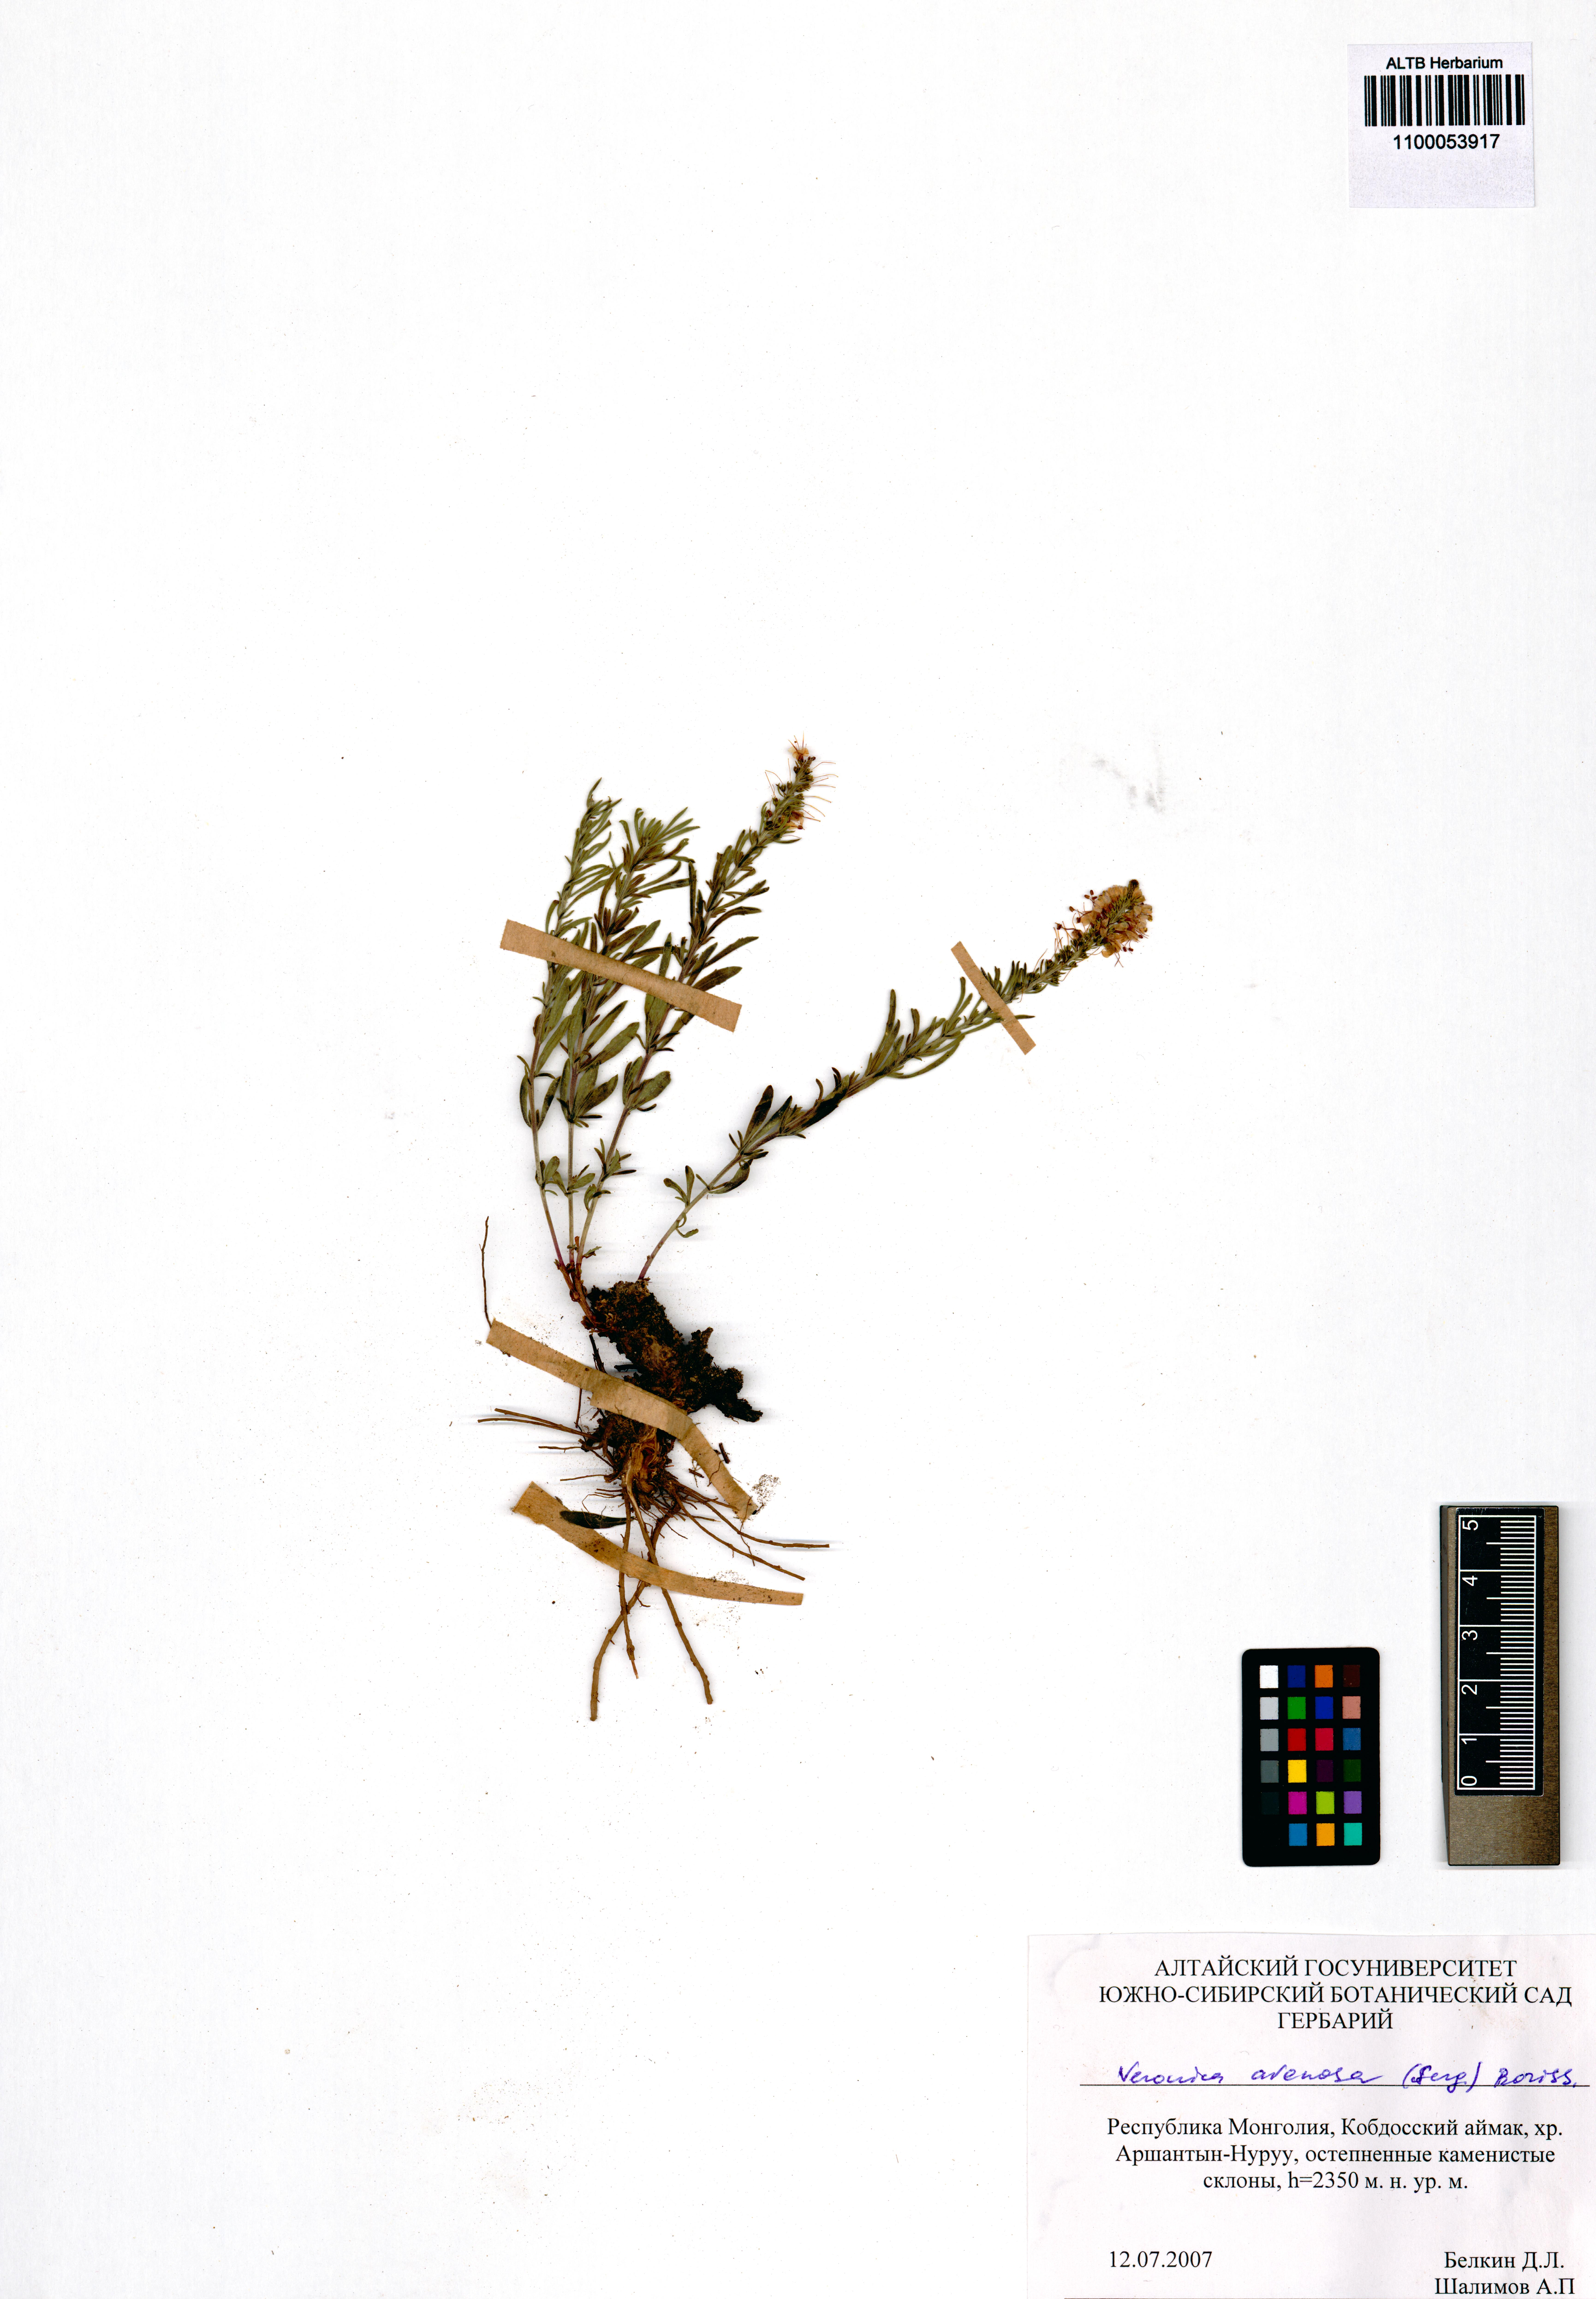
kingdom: Plantae
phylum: Tracheophyta
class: Magnoliopsida
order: Lamiales
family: Plantaginaceae
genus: Veronica
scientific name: Veronica arenosa
